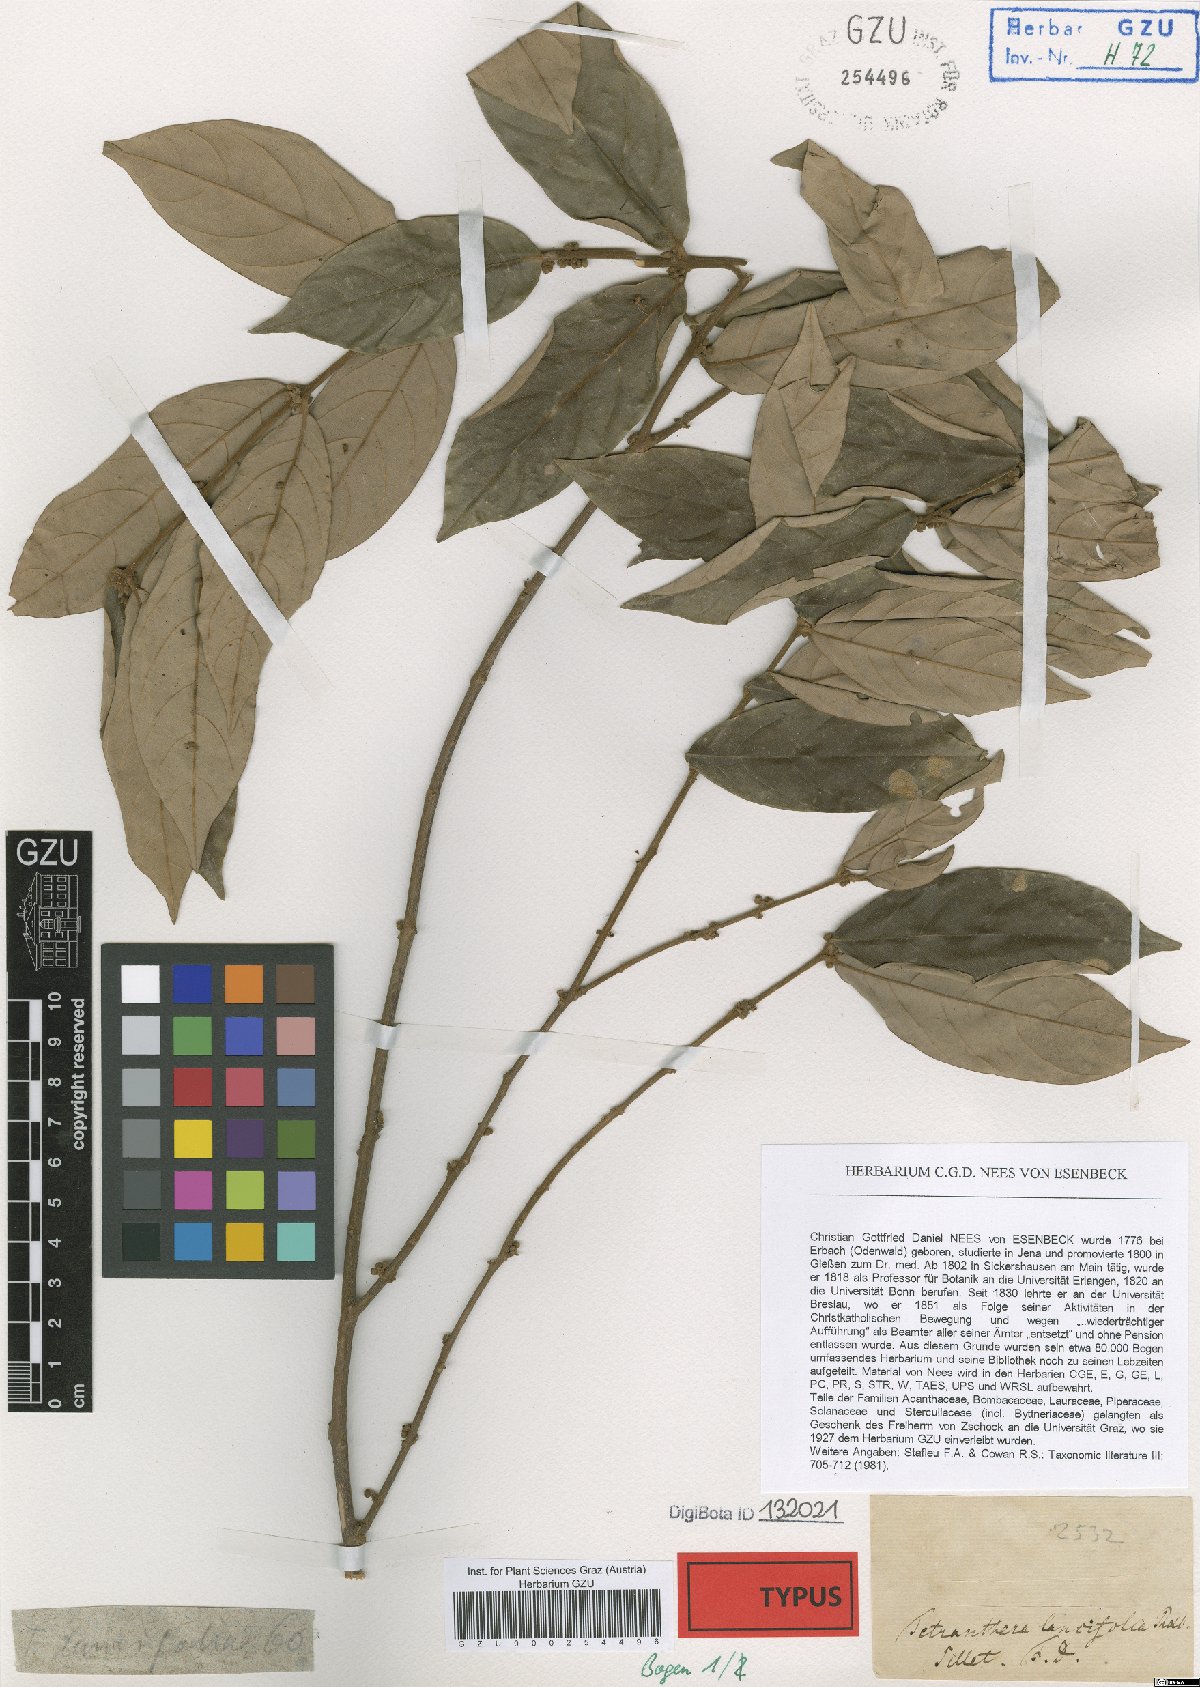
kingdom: Plantae
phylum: Tracheophyta
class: Magnoliopsida
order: Laurales
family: Lauraceae
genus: Litsea
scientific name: Litsea lancifolia
